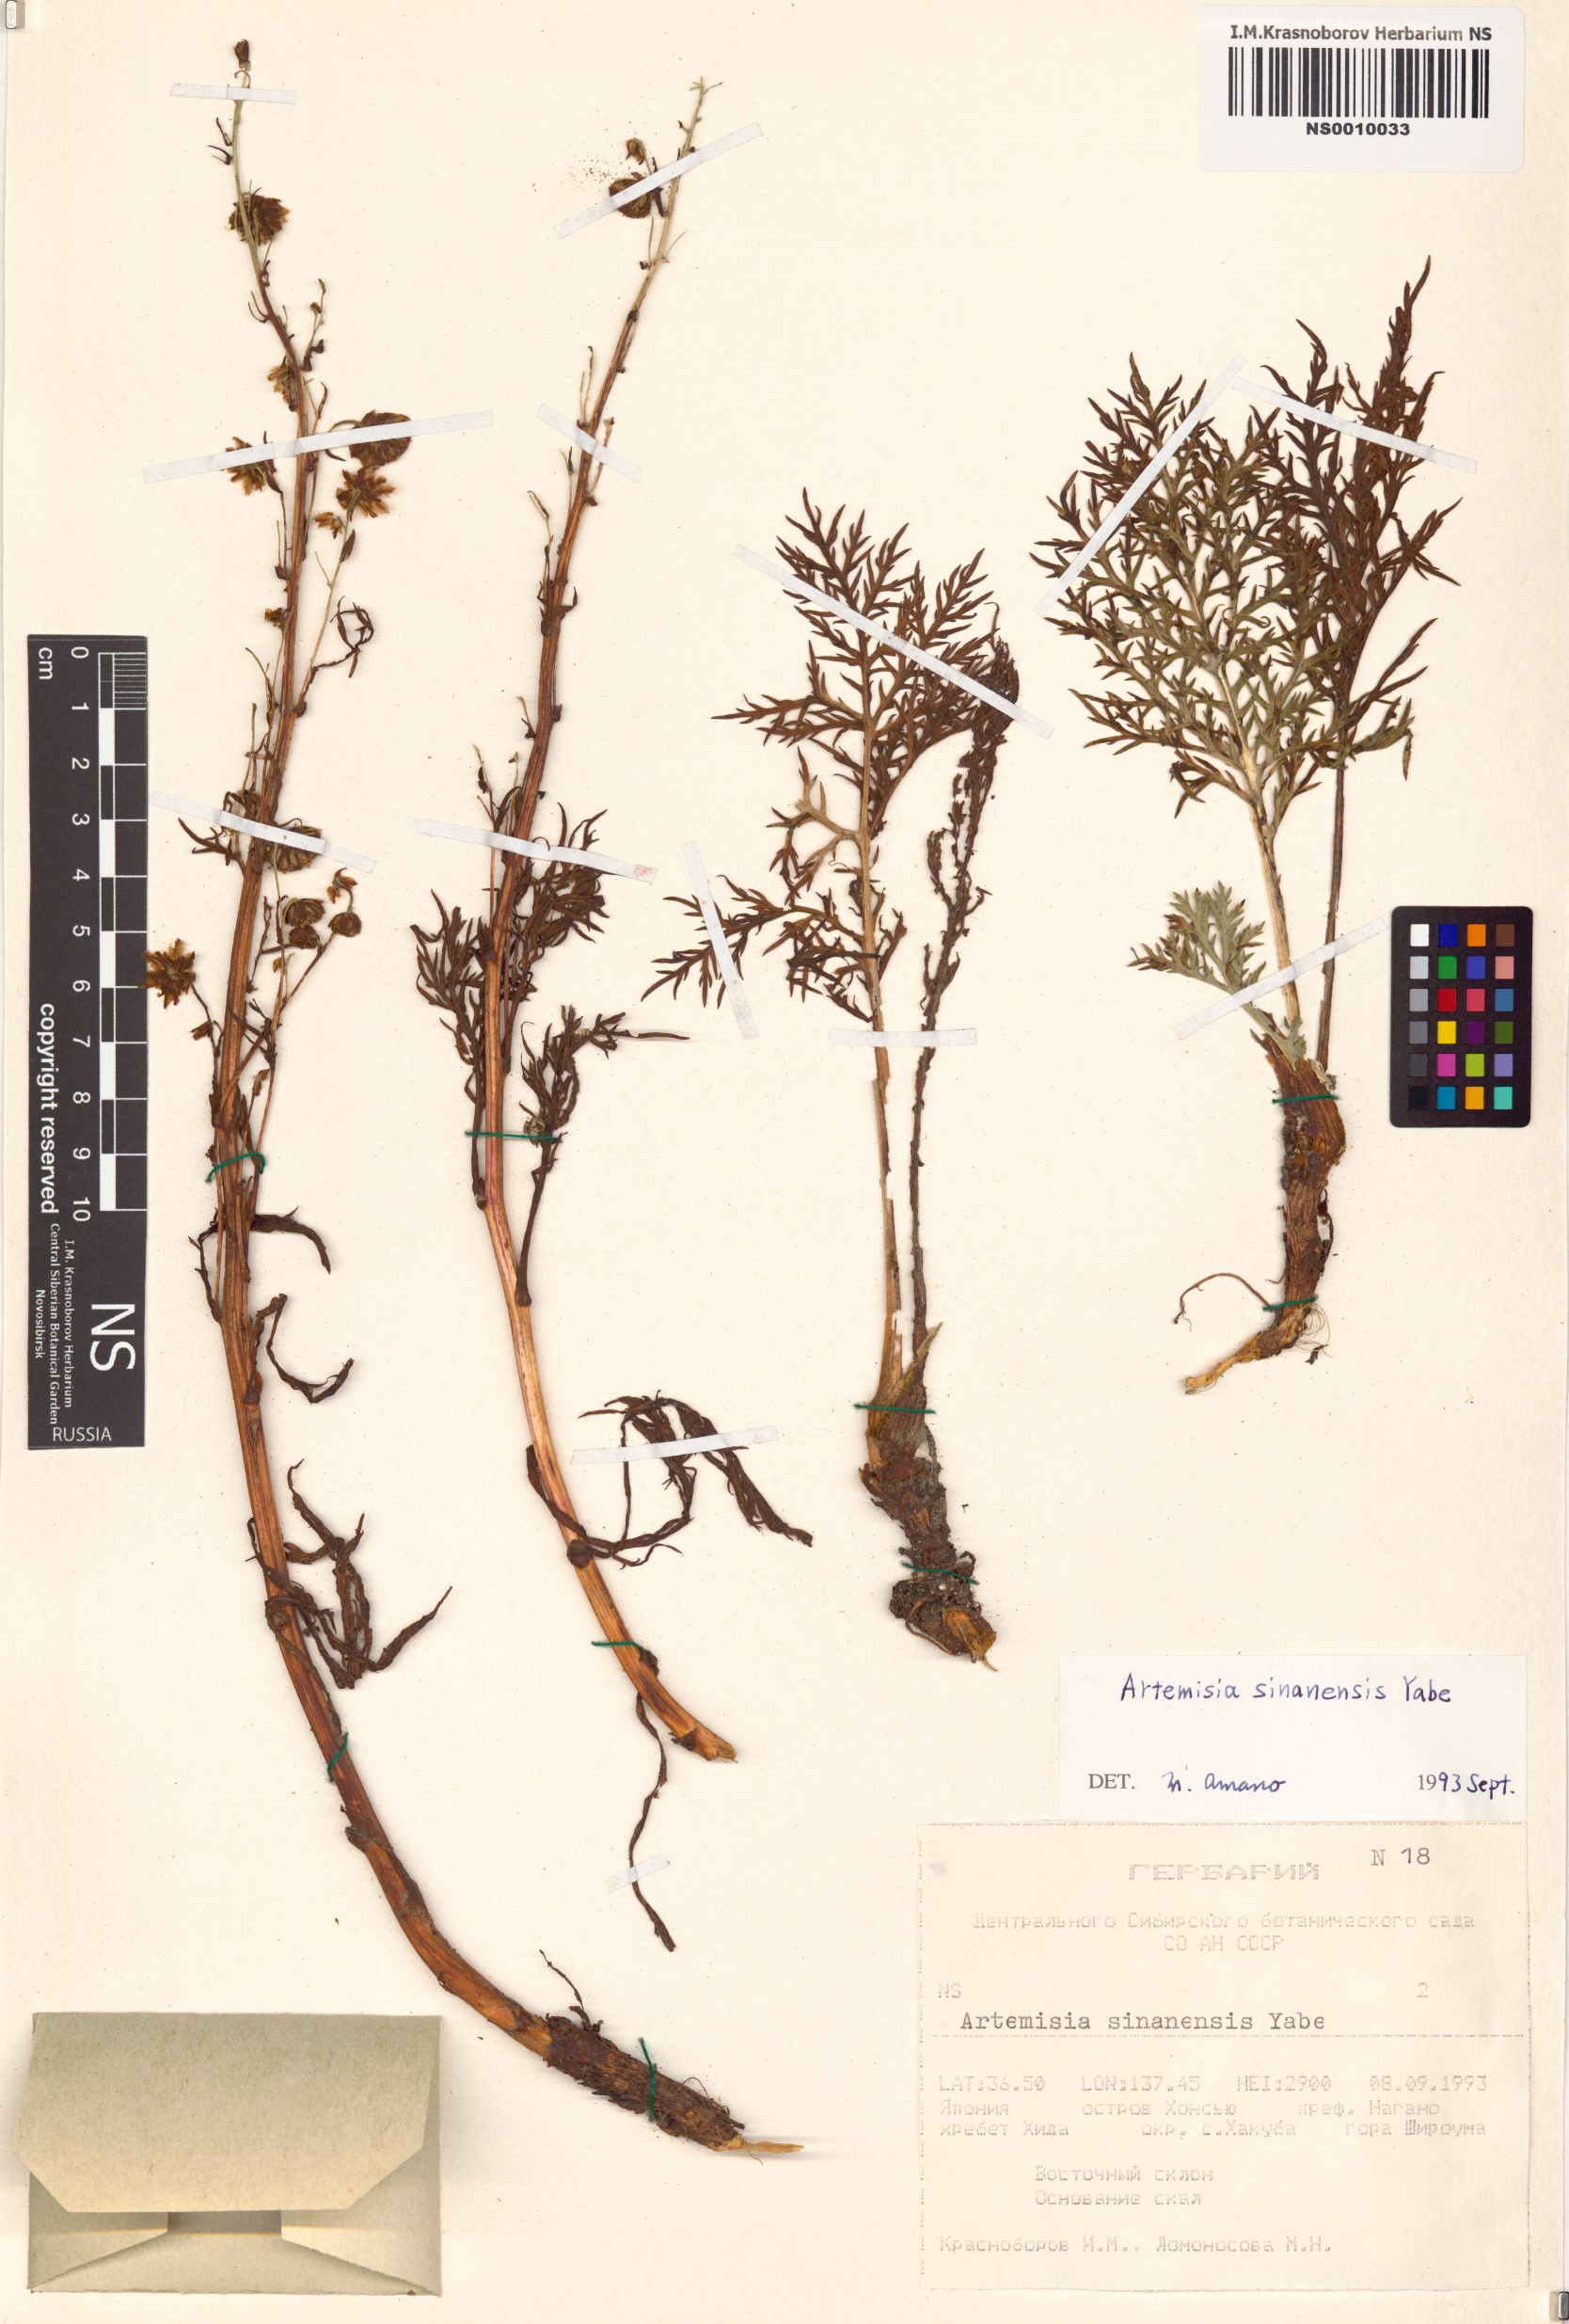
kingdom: Plantae
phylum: Tracheophyta
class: Magnoliopsida
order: Asterales
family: Asteraceae
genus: Artemisia
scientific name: Artemisia sinanensis
